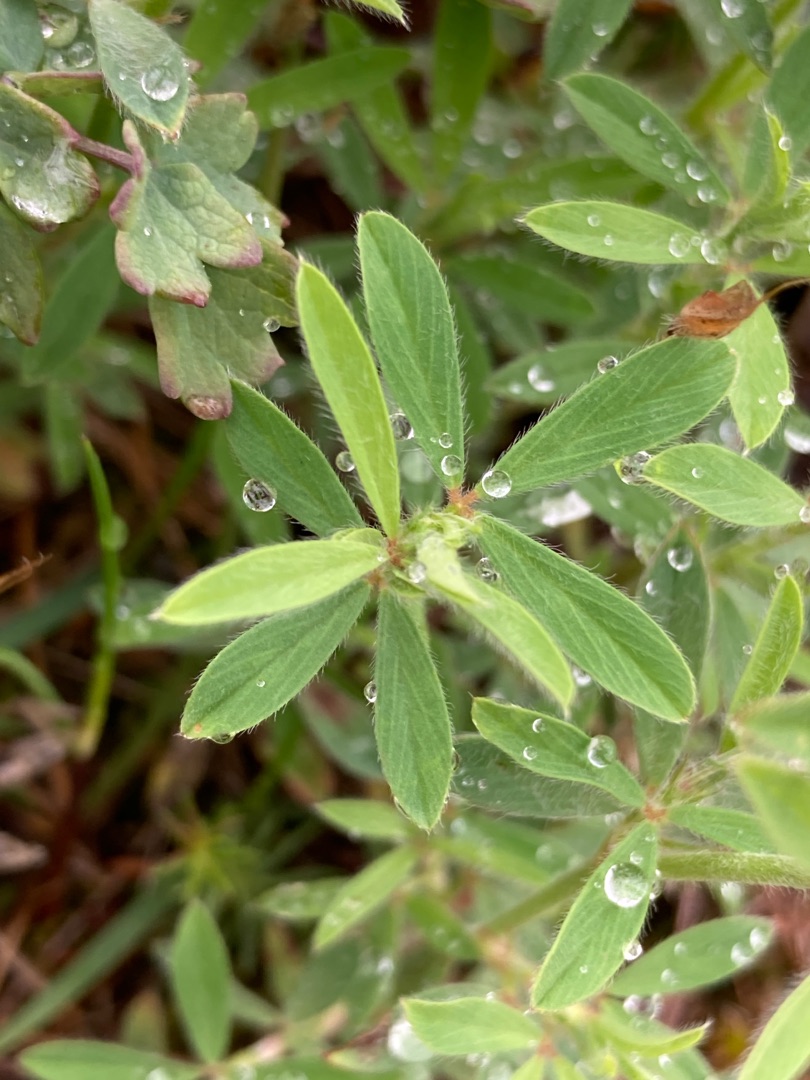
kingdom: Plantae
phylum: Tracheophyta
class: Magnoliopsida
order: Fabales
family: Fabaceae
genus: Trifolium
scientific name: Trifolium arvense
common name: Hare-kløver
